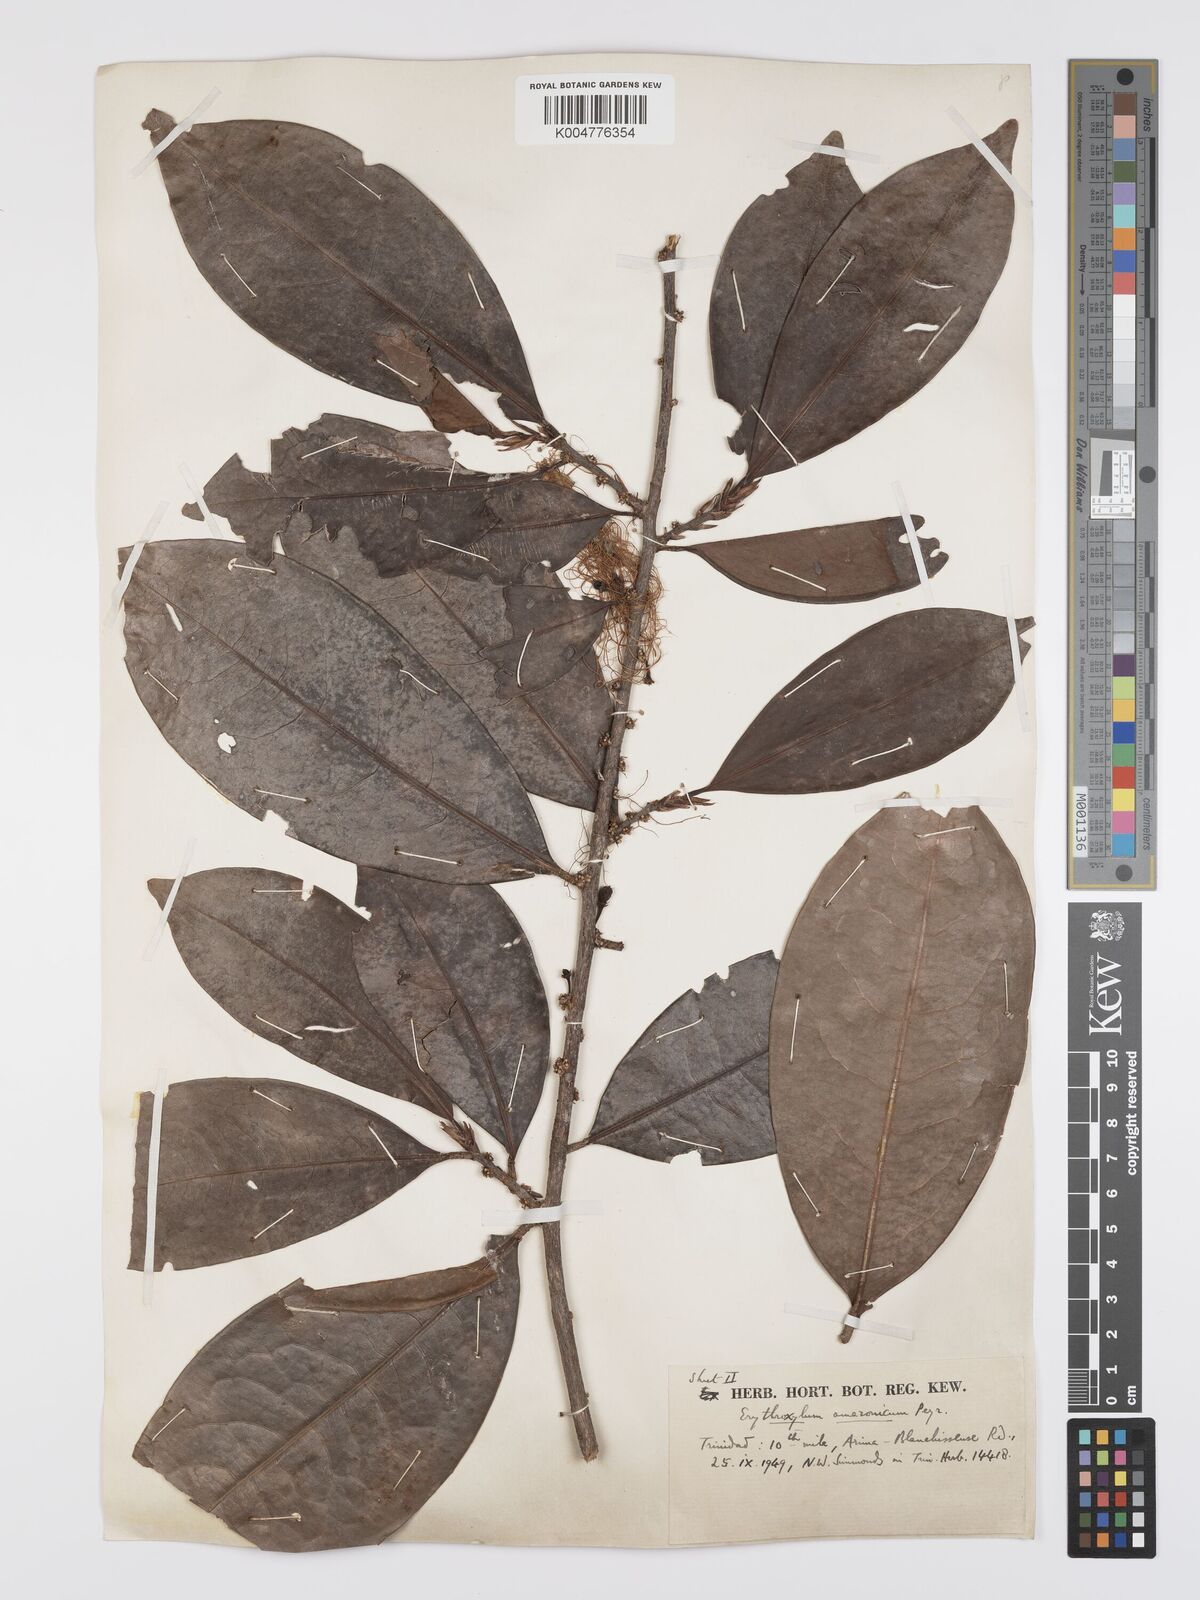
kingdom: Plantae
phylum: Tracheophyta
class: Magnoliopsida
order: Malpighiales
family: Erythroxylaceae
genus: Erythroxylum
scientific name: Erythroxylum amazonicum
